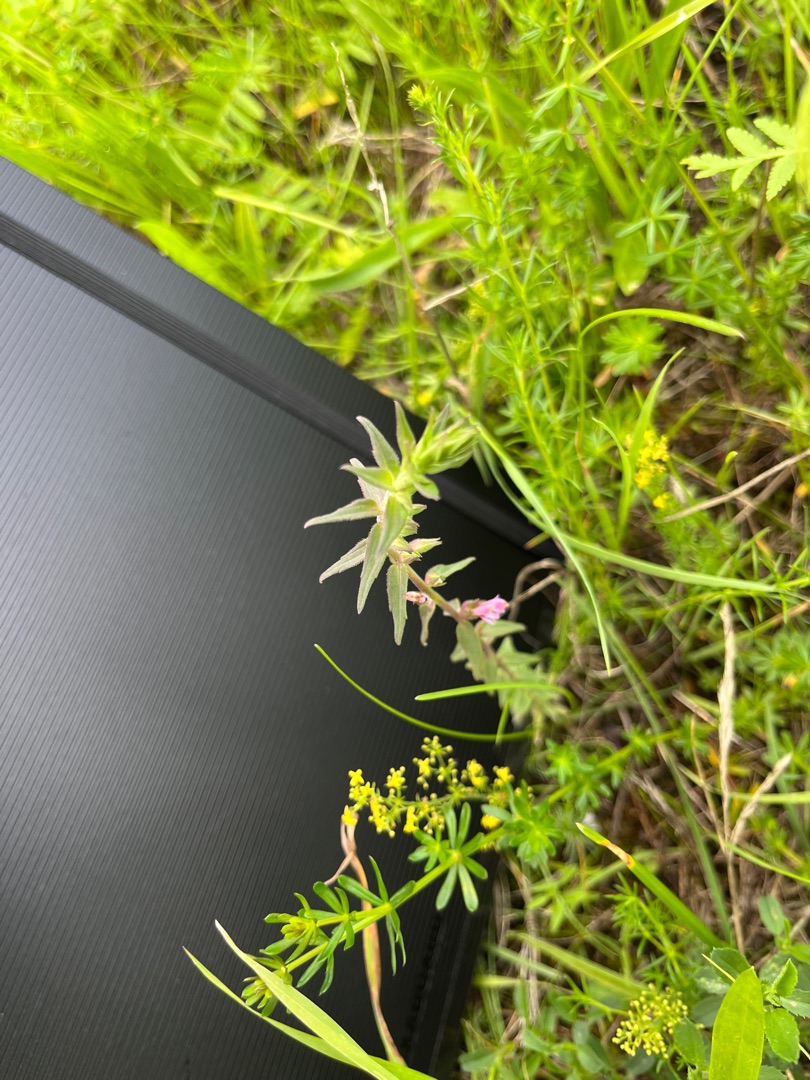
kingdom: Plantae
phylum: Tracheophyta
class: Magnoliopsida
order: Lamiales
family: Orobanchaceae
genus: Odontites
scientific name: Odontites
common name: Rødtopslægten
